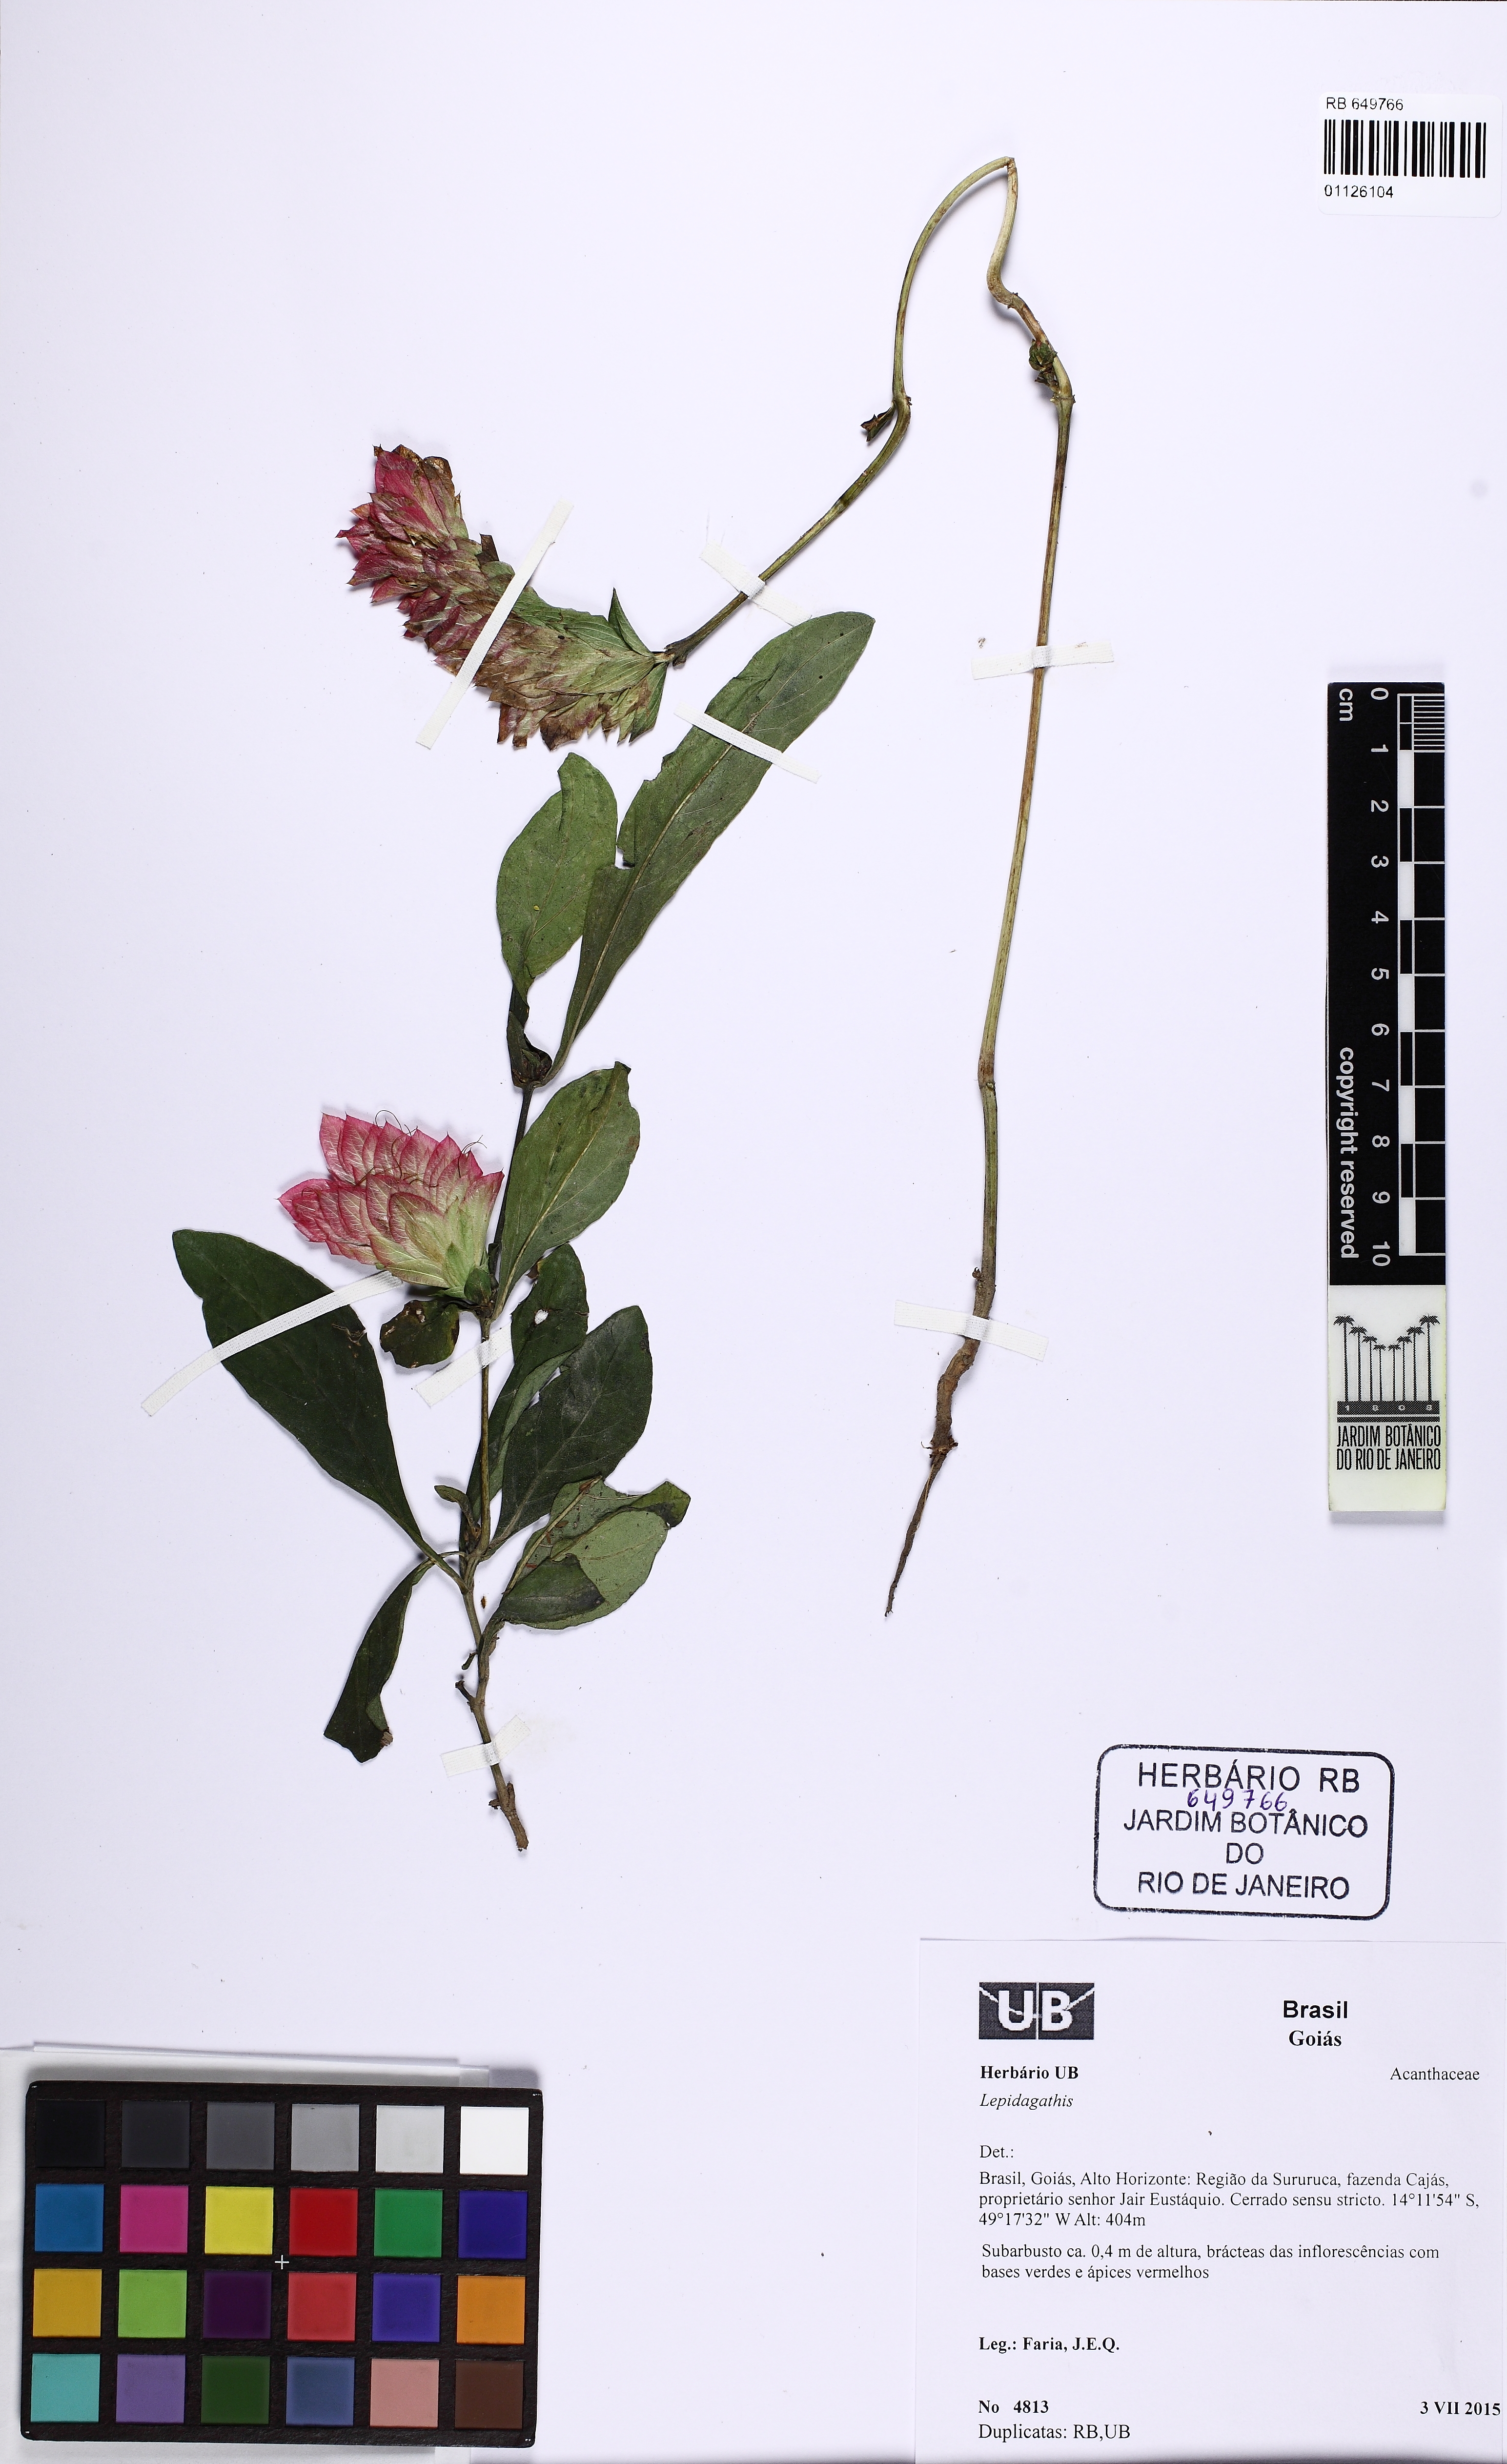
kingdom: Plantae
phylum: Tracheophyta
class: Magnoliopsida
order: Lamiales
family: Acanthaceae
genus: Lepidagathis
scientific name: Lepidagathis
